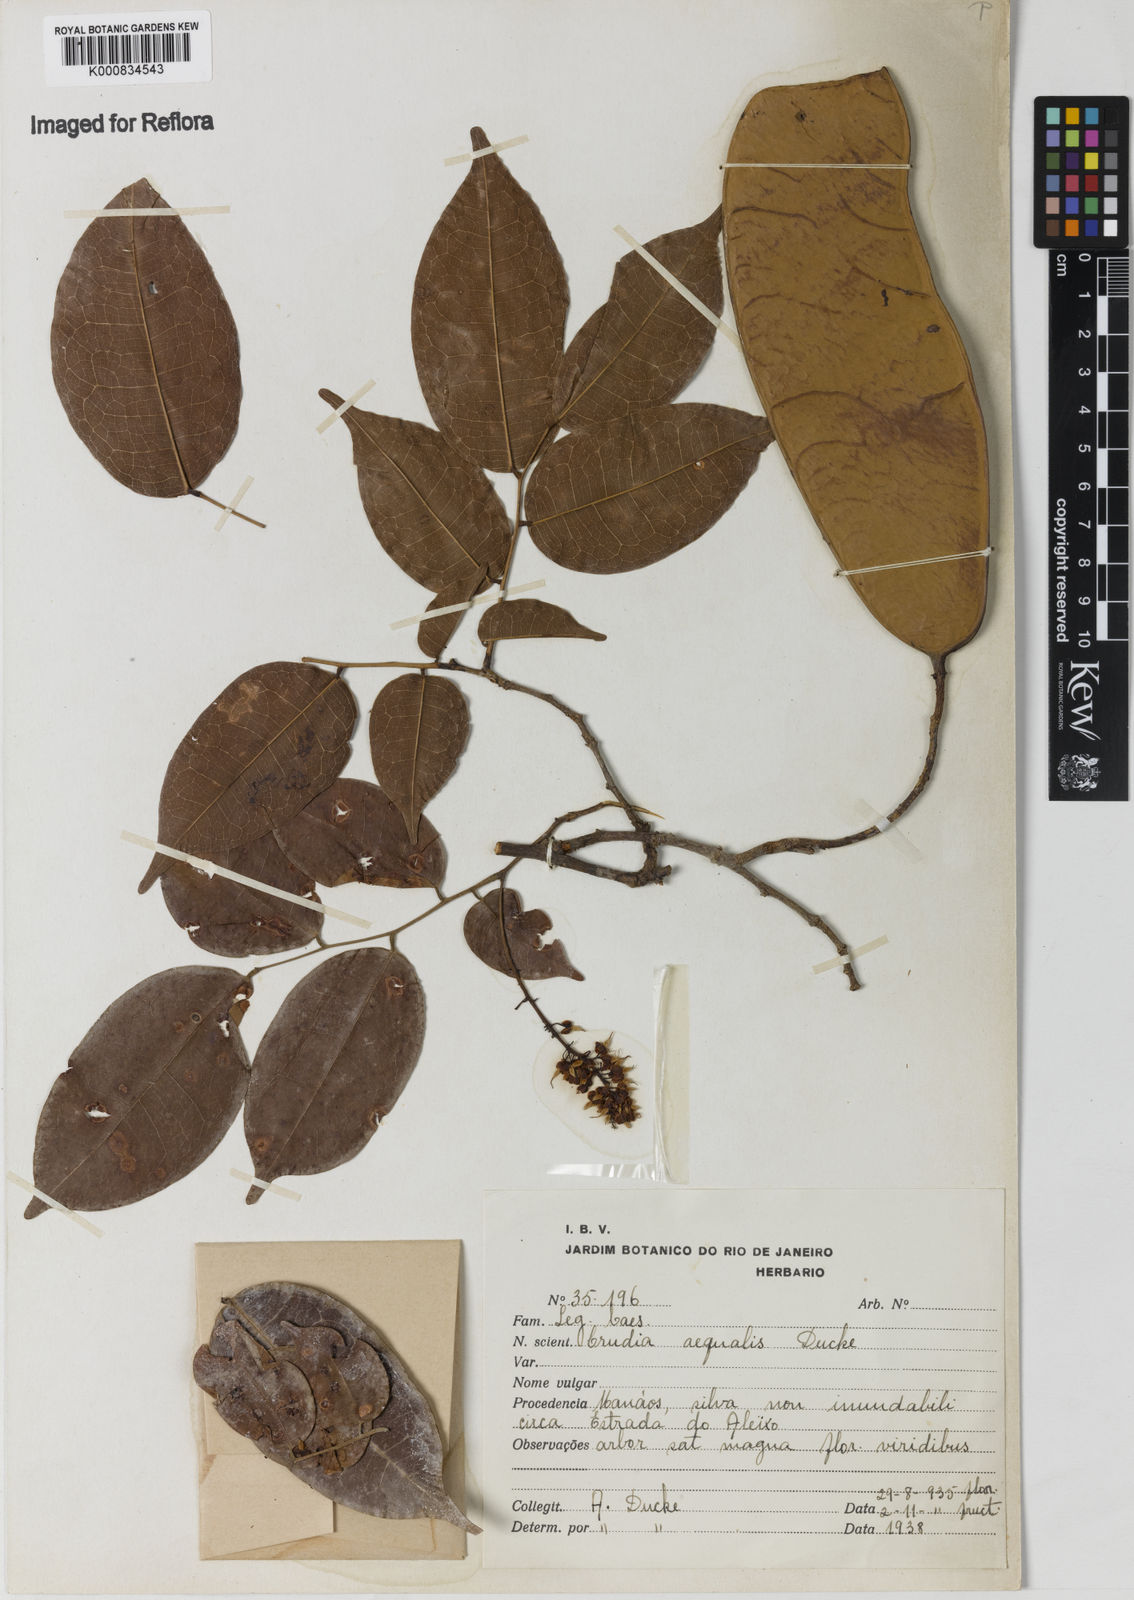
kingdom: Plantae
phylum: Tracheophyta
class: Magnoliopsida
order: Fabales
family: Fabaceae
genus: Crudia
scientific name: Crudia aequalis
